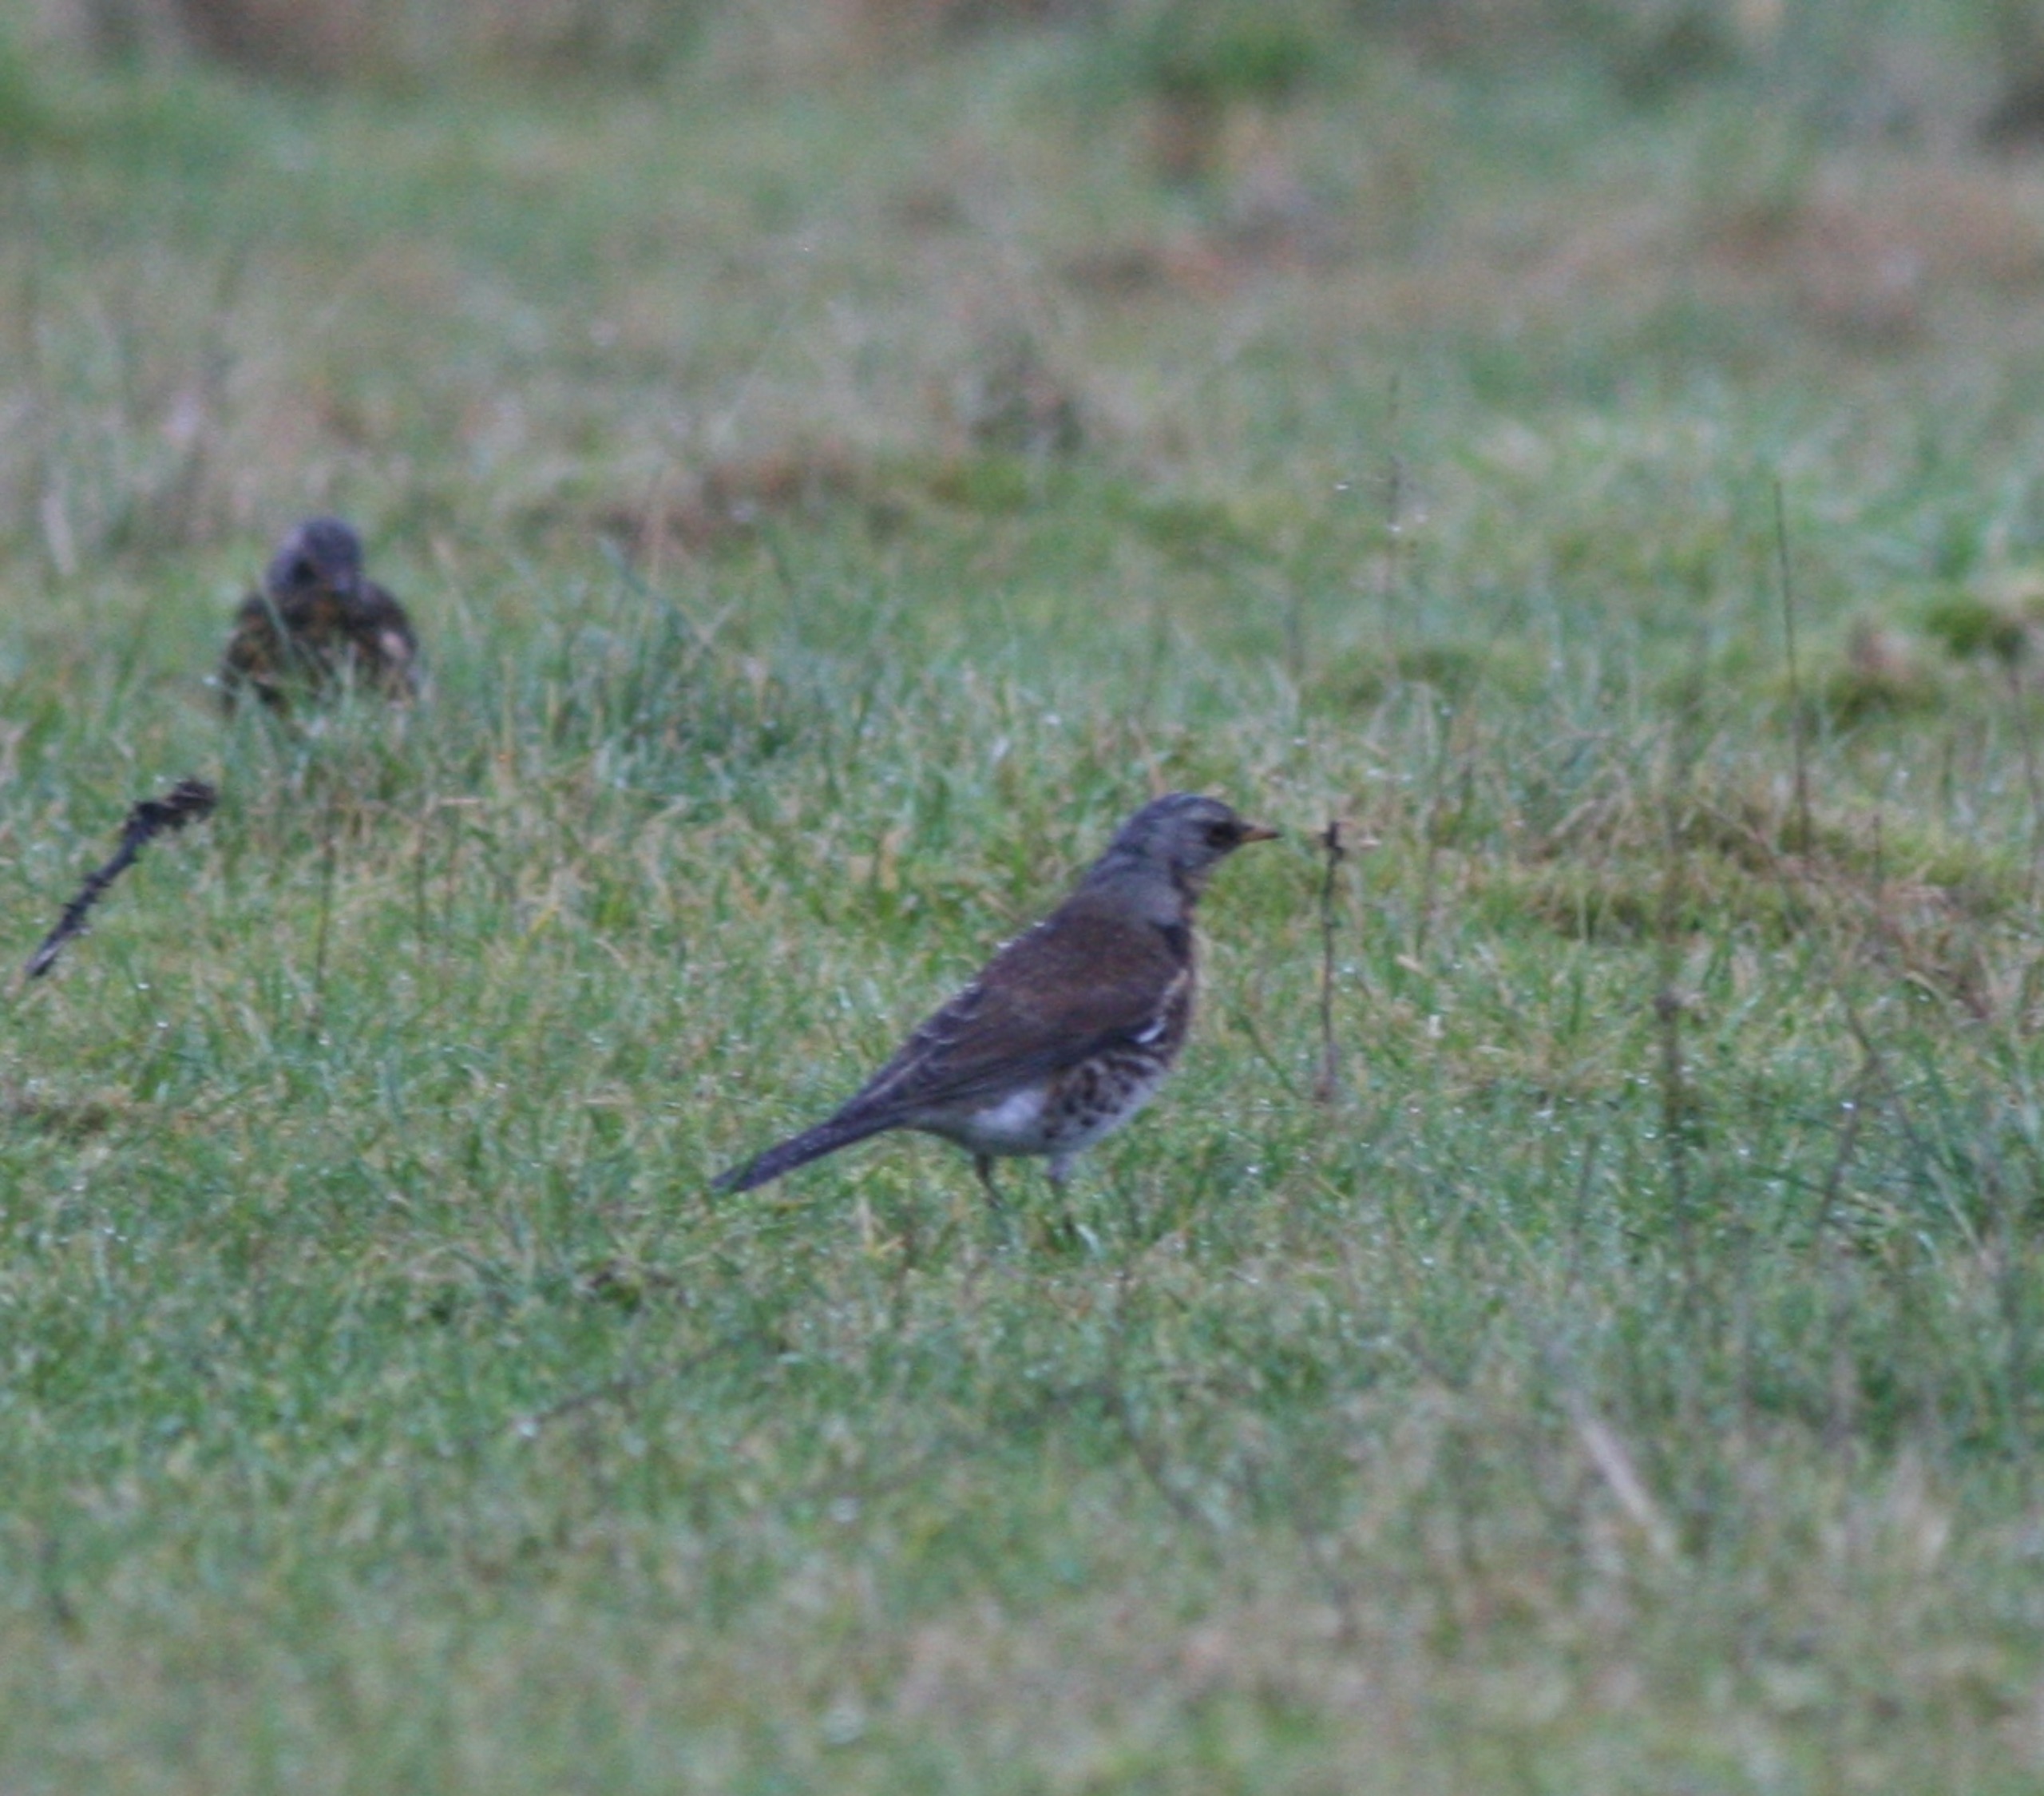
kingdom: Animalia
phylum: Chordata
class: Aves
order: Passeriformes
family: Turdidae
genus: Turdus
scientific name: Turdus pilaris
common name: Sjagger
